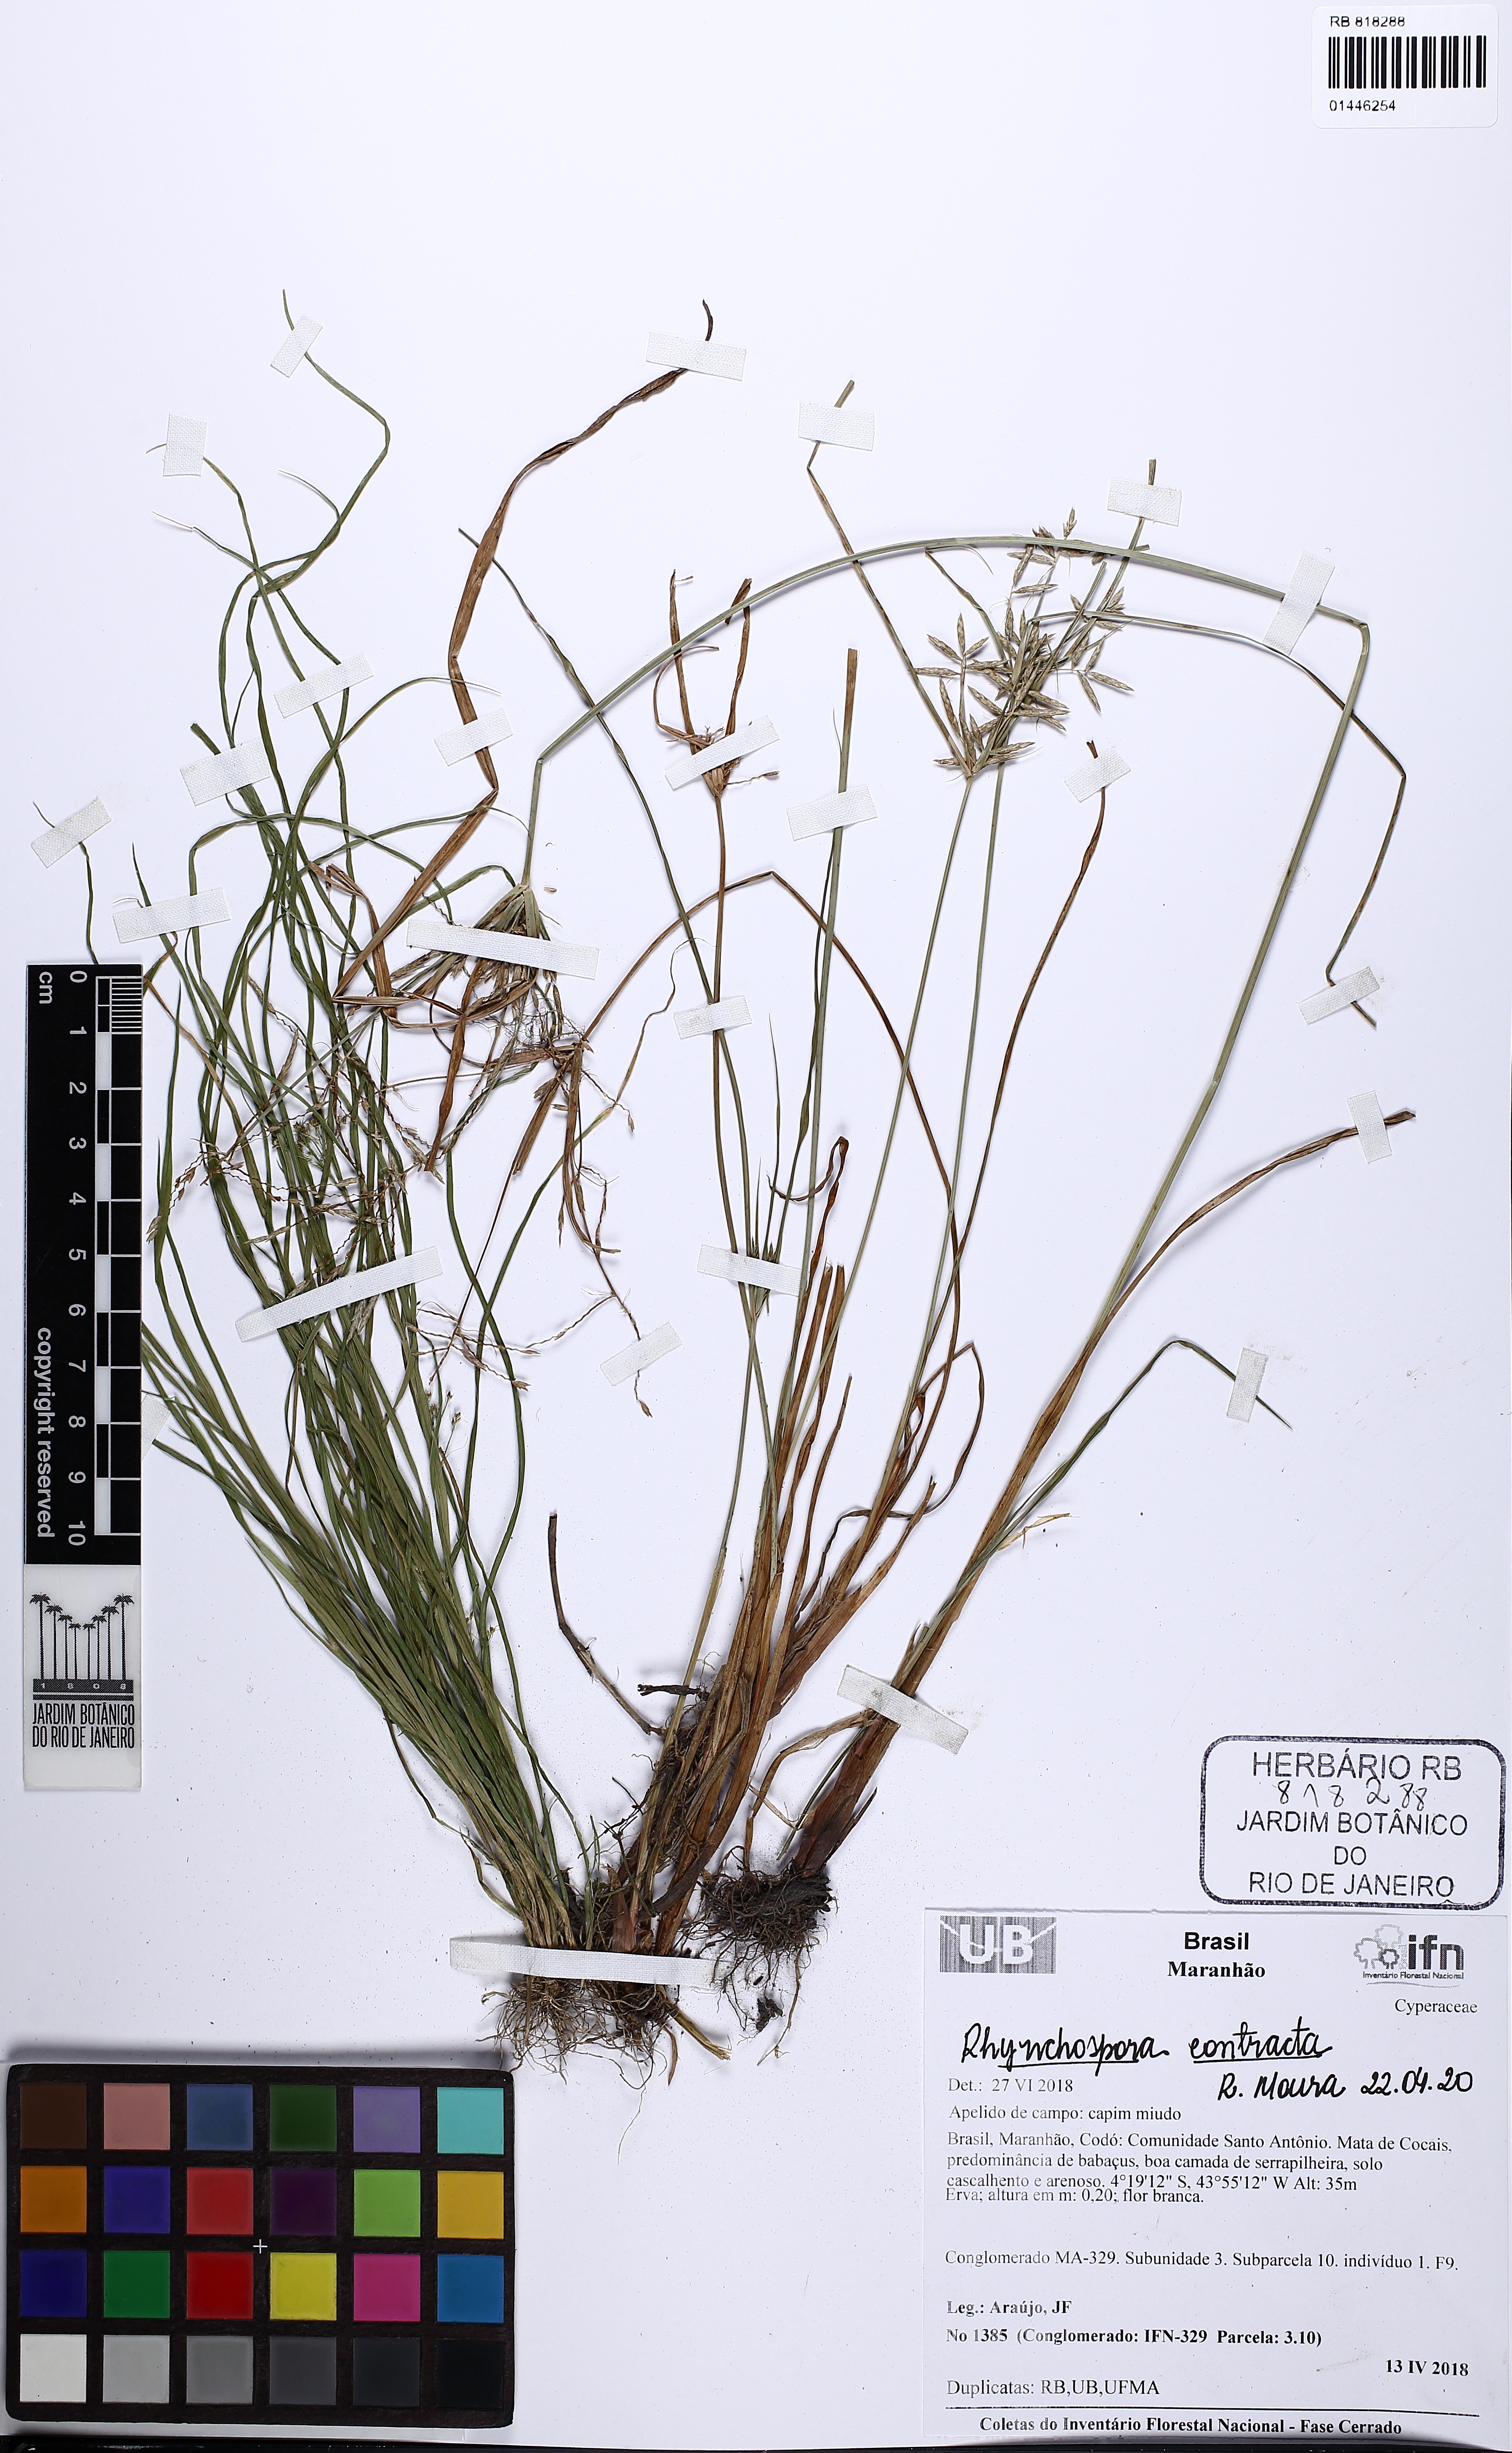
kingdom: Plantae
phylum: Tracheophyta
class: Liliopsida
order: Poales
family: Cyperaceae
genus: Rhynchospora
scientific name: Rhynchospora contracta
